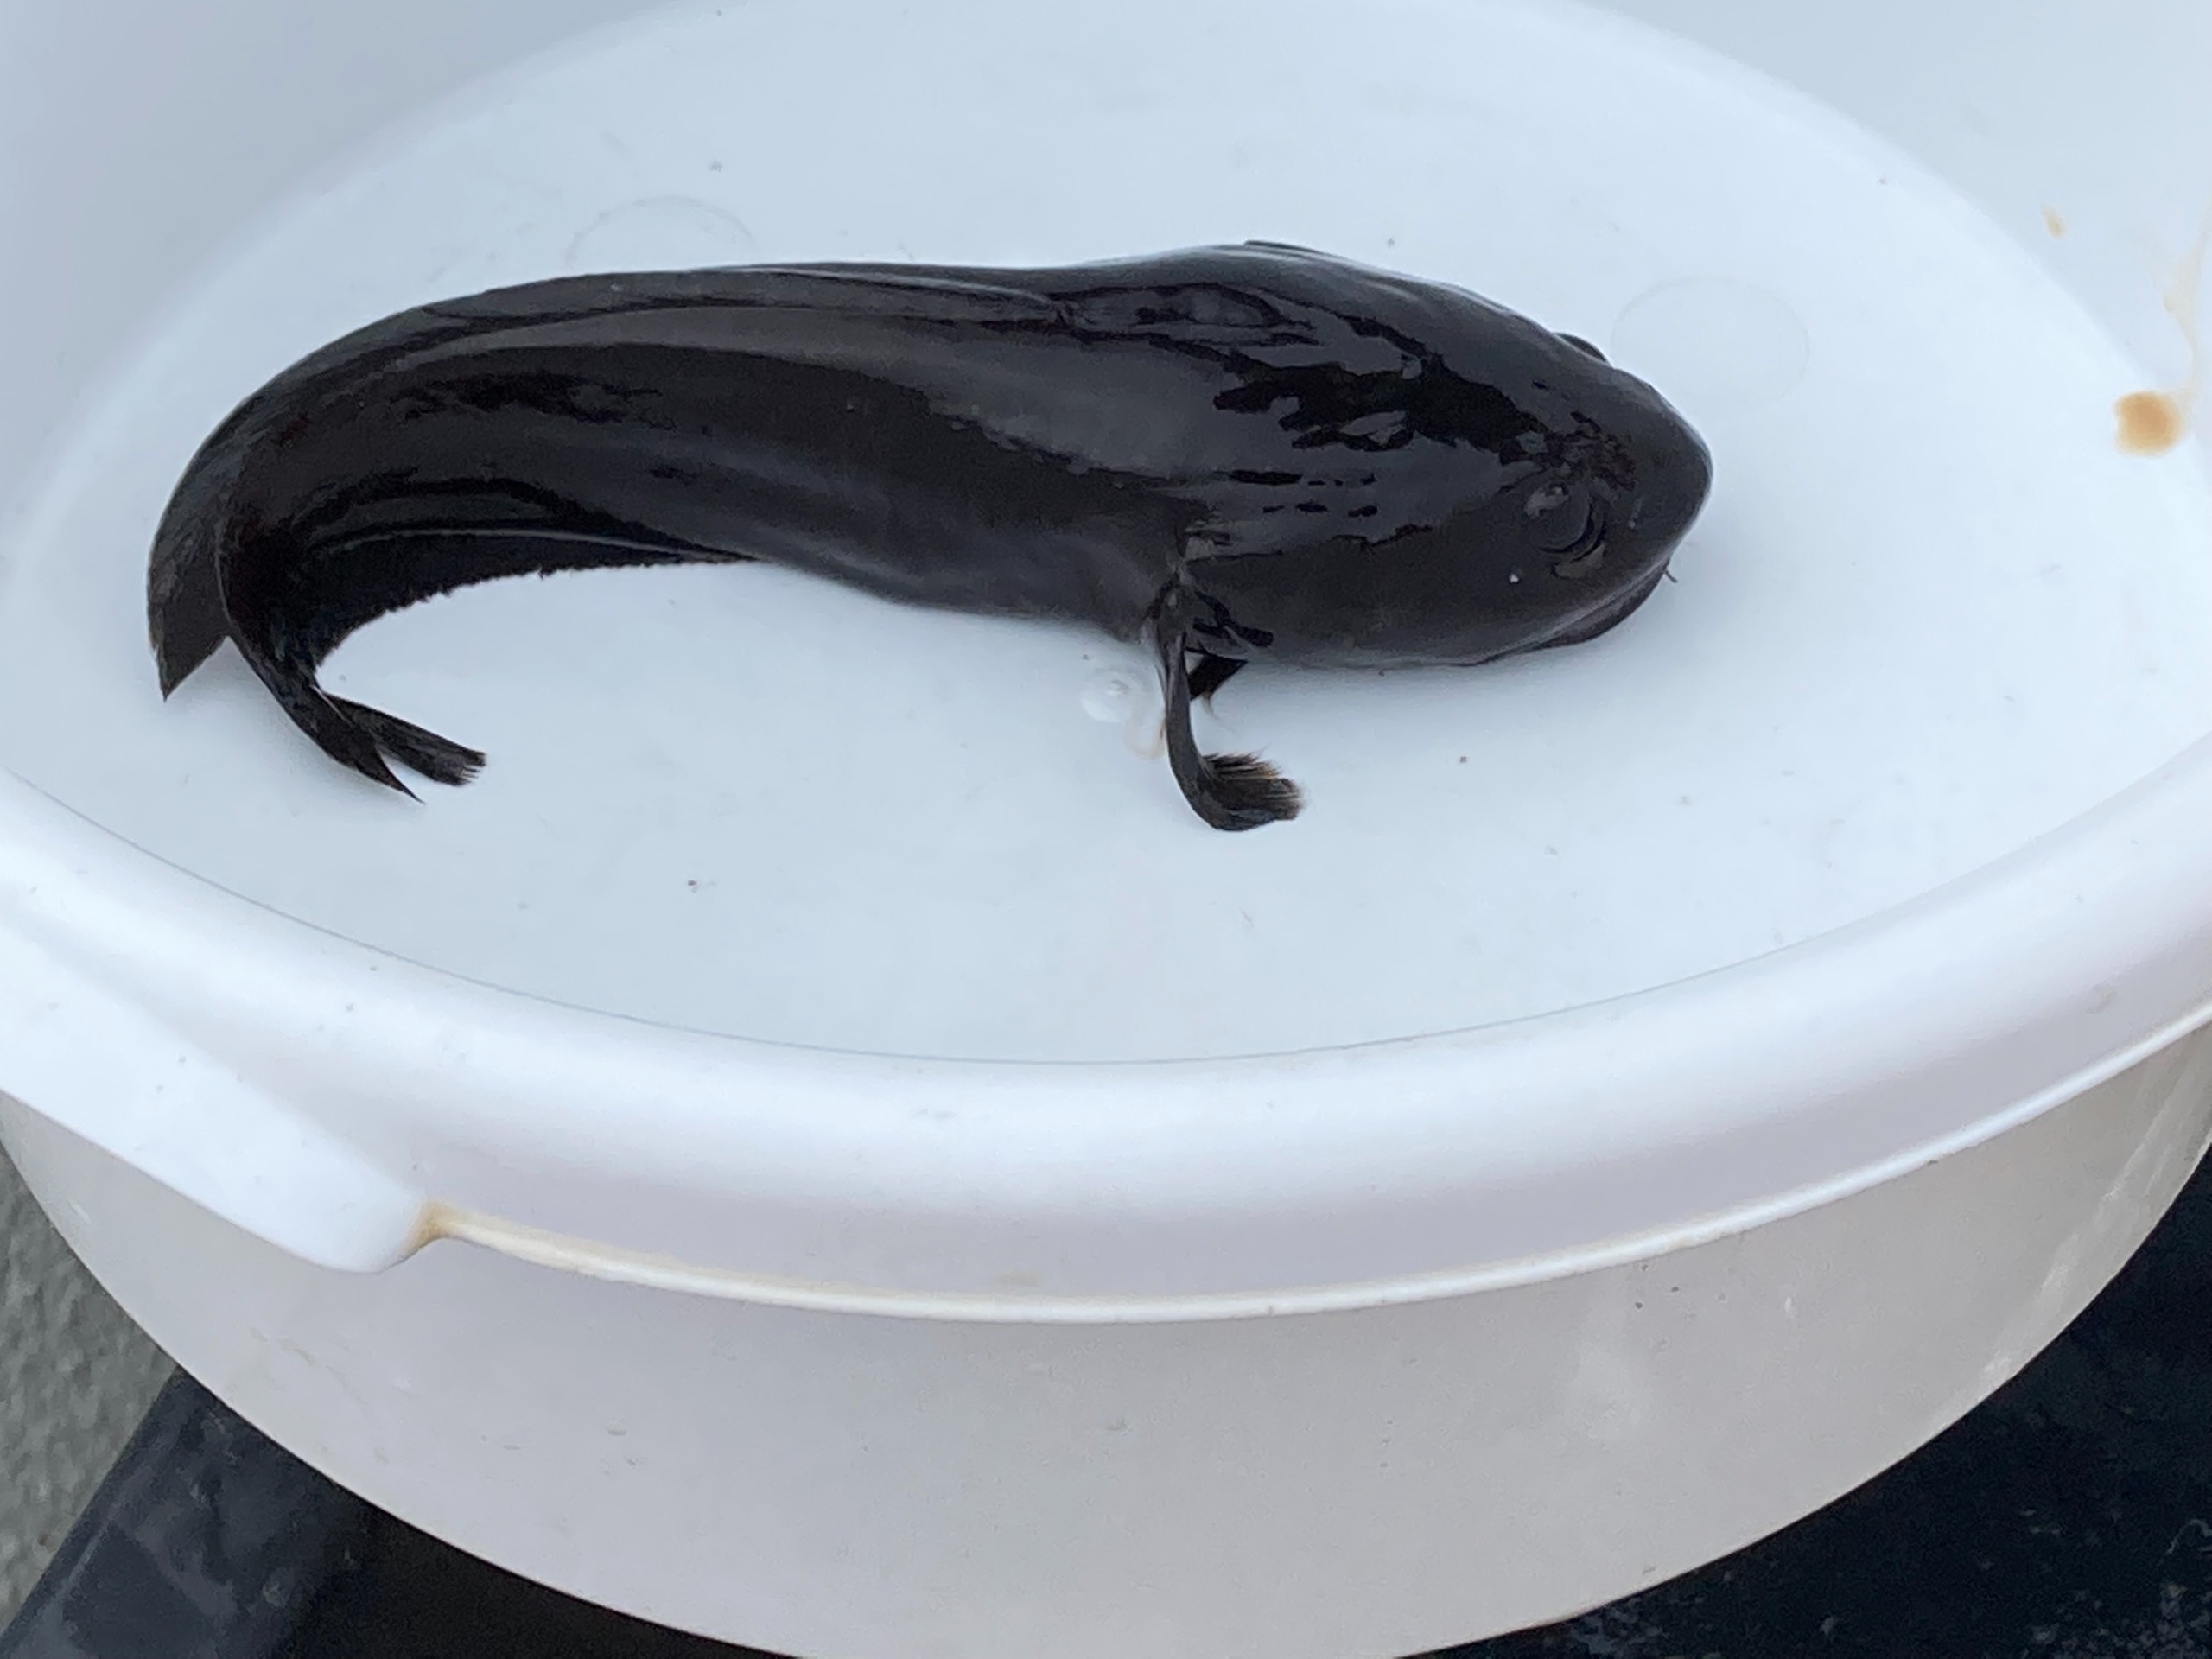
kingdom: Animalia
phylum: Chordata
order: Gadiformes
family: Gadidae
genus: Raniceps
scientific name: Raniceps raninus
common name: Sortvels
